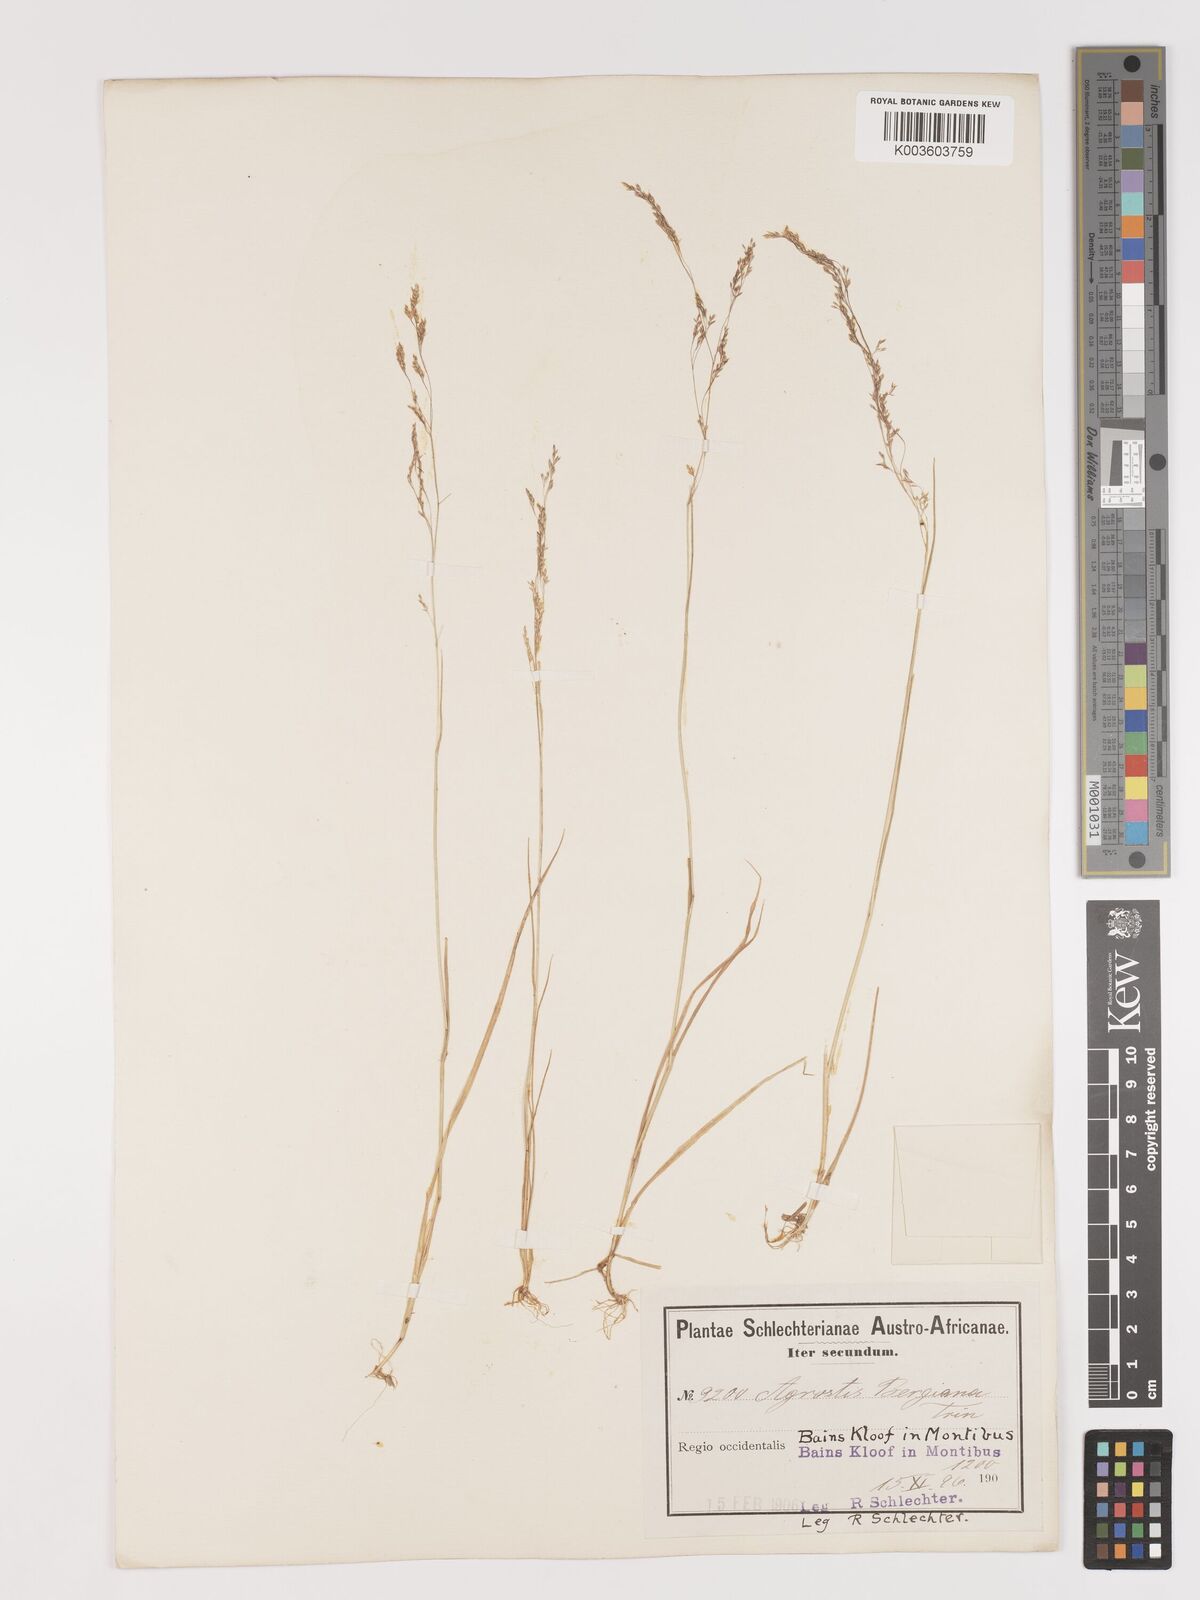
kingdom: Plantae
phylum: Tracheophyta
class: Liliopsida
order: Poales
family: Poaceae
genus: Agrostis
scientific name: Agrostis bergiana
